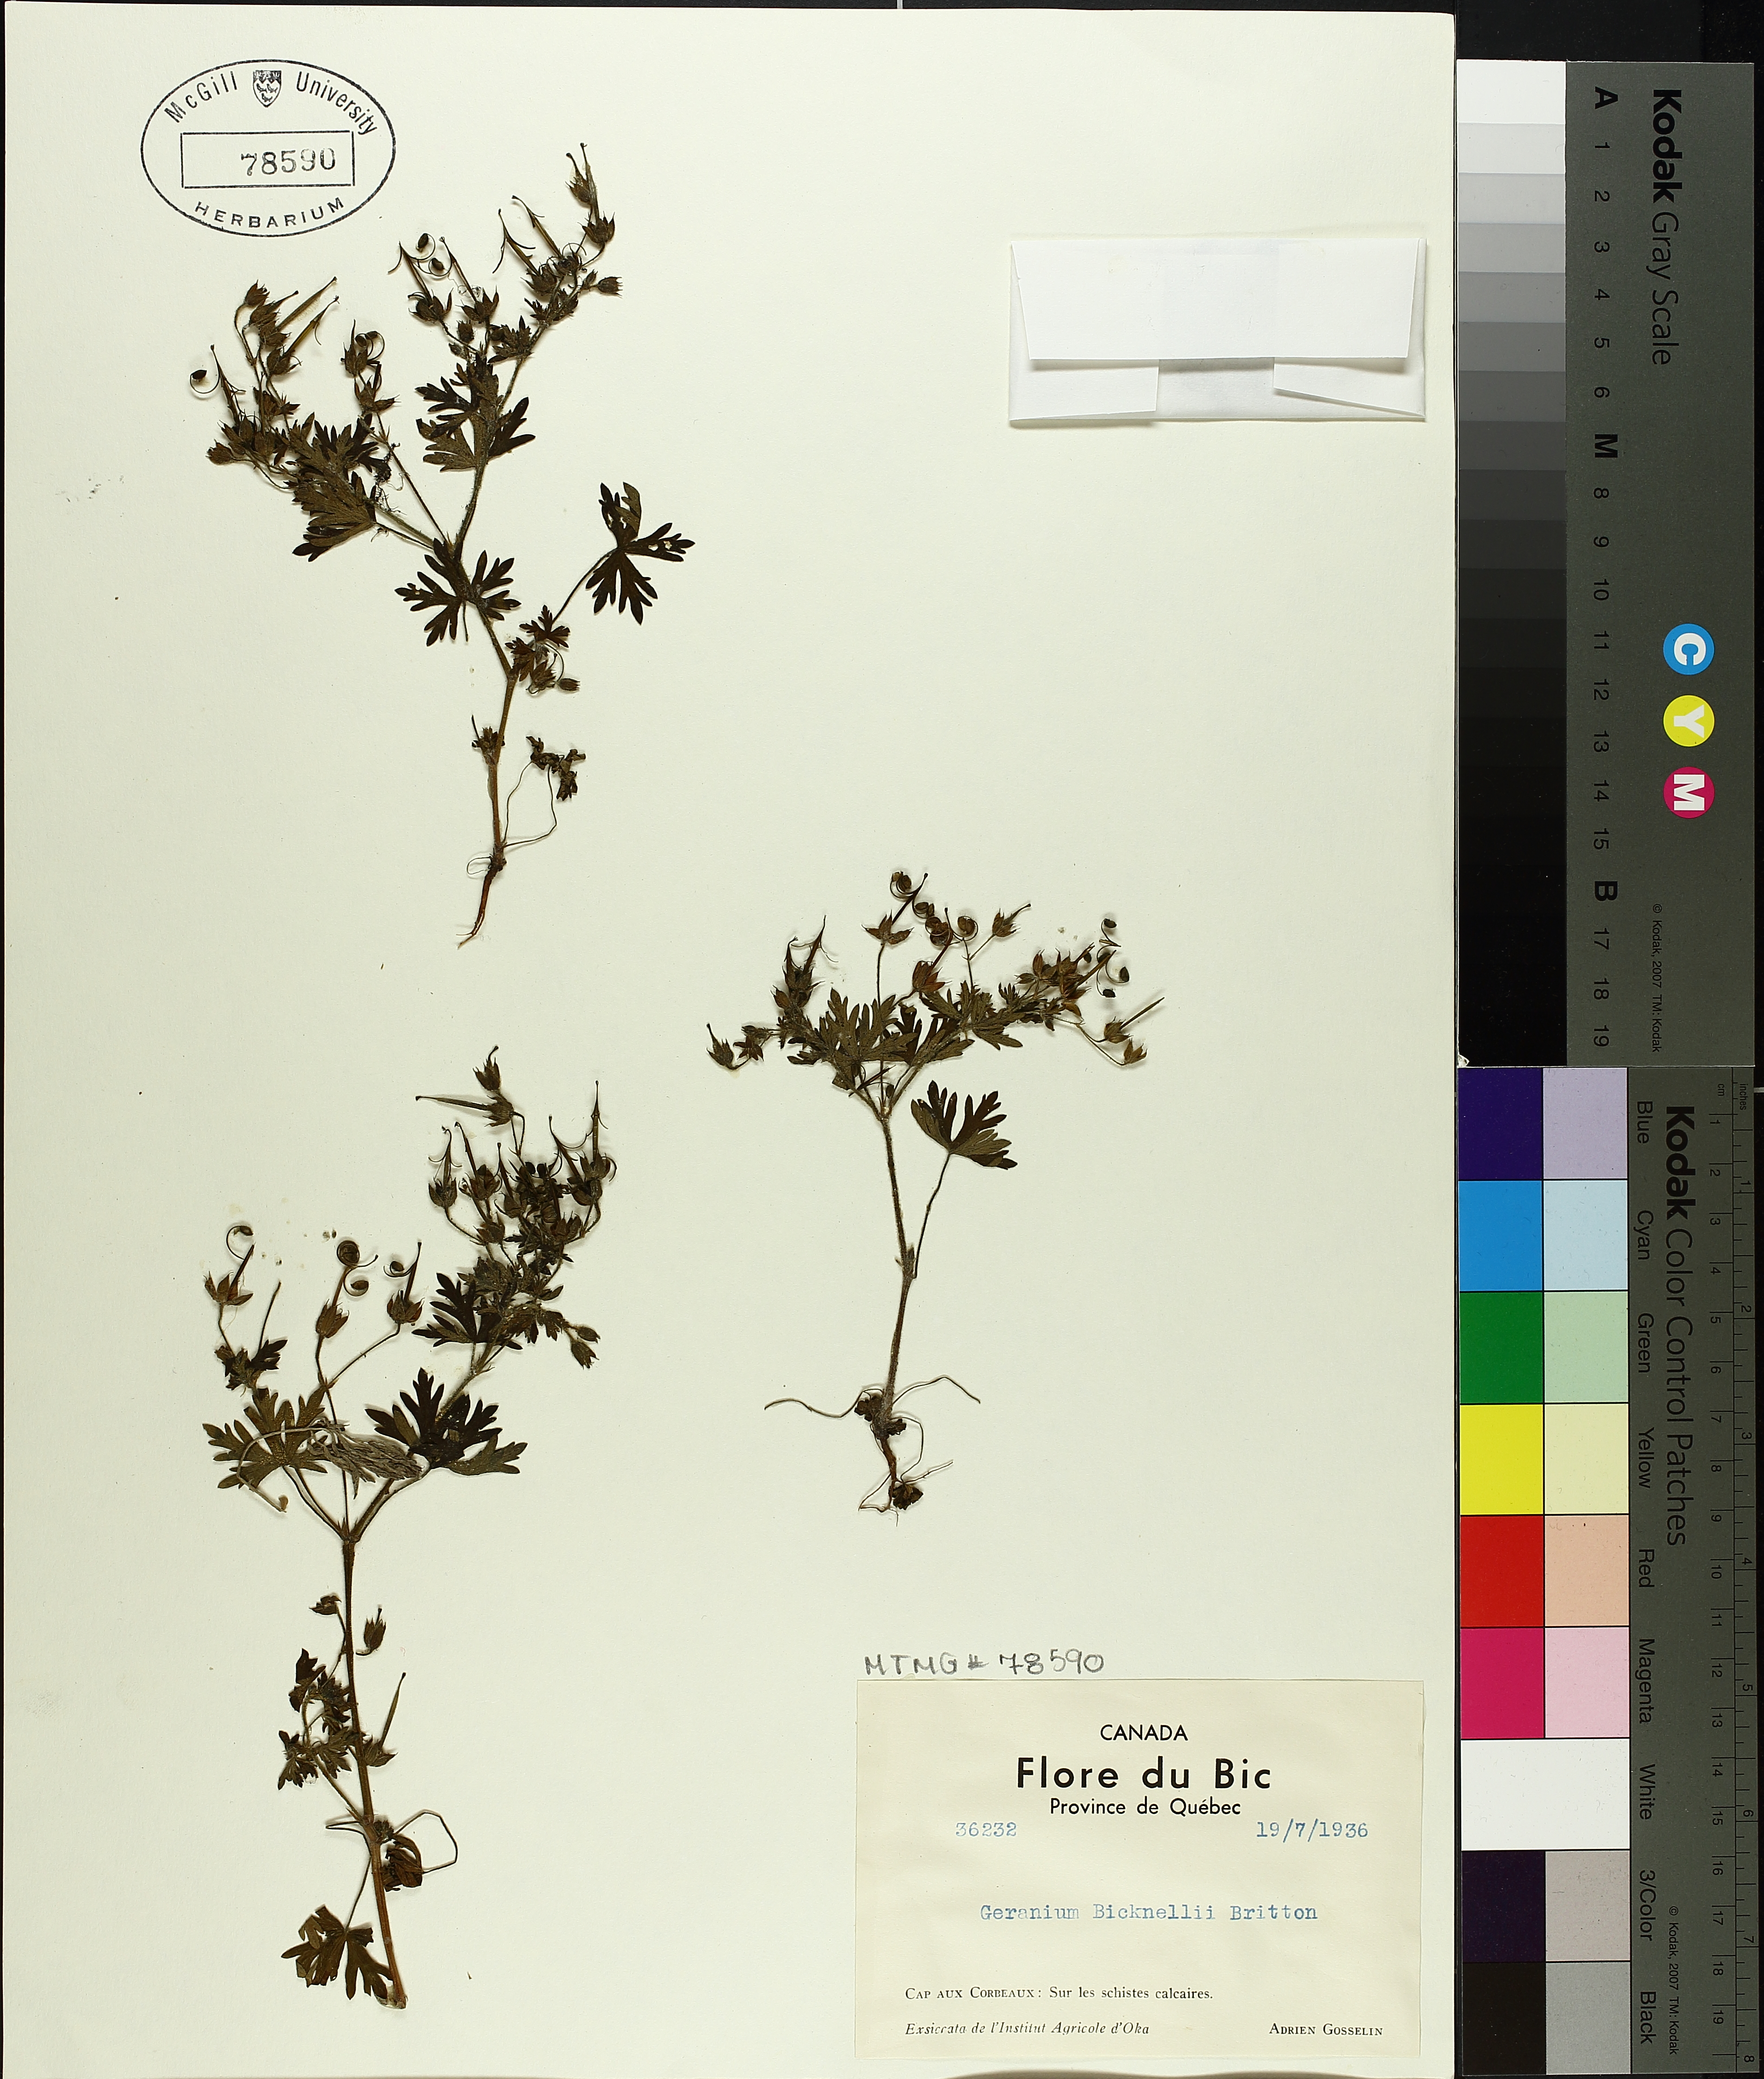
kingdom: Plantae
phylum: Tracheophyta
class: Magnoliopsida
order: Geraniales
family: Geraniaceae
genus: Geranium
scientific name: Geranium bicknellii
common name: Bicknell's cranesbill
